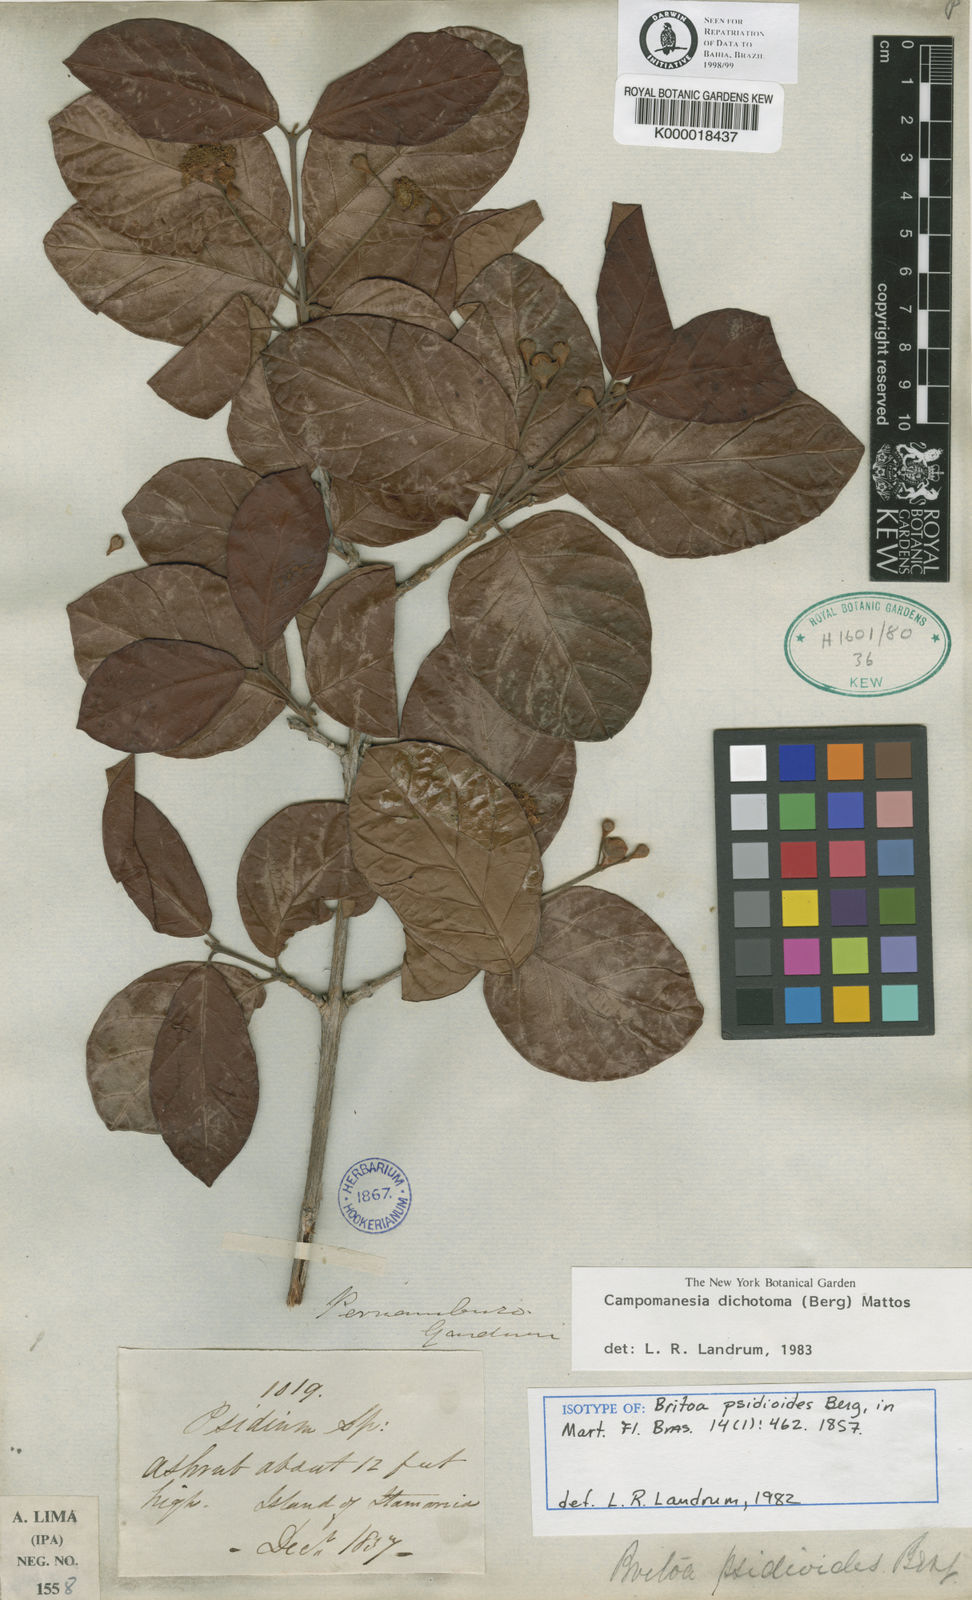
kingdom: Plantae
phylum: Tracheophyta
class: Magnoliopsida
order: Myrtales
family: Myrtaceae
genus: Campomanesia
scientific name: Campomanesia dichotoma
